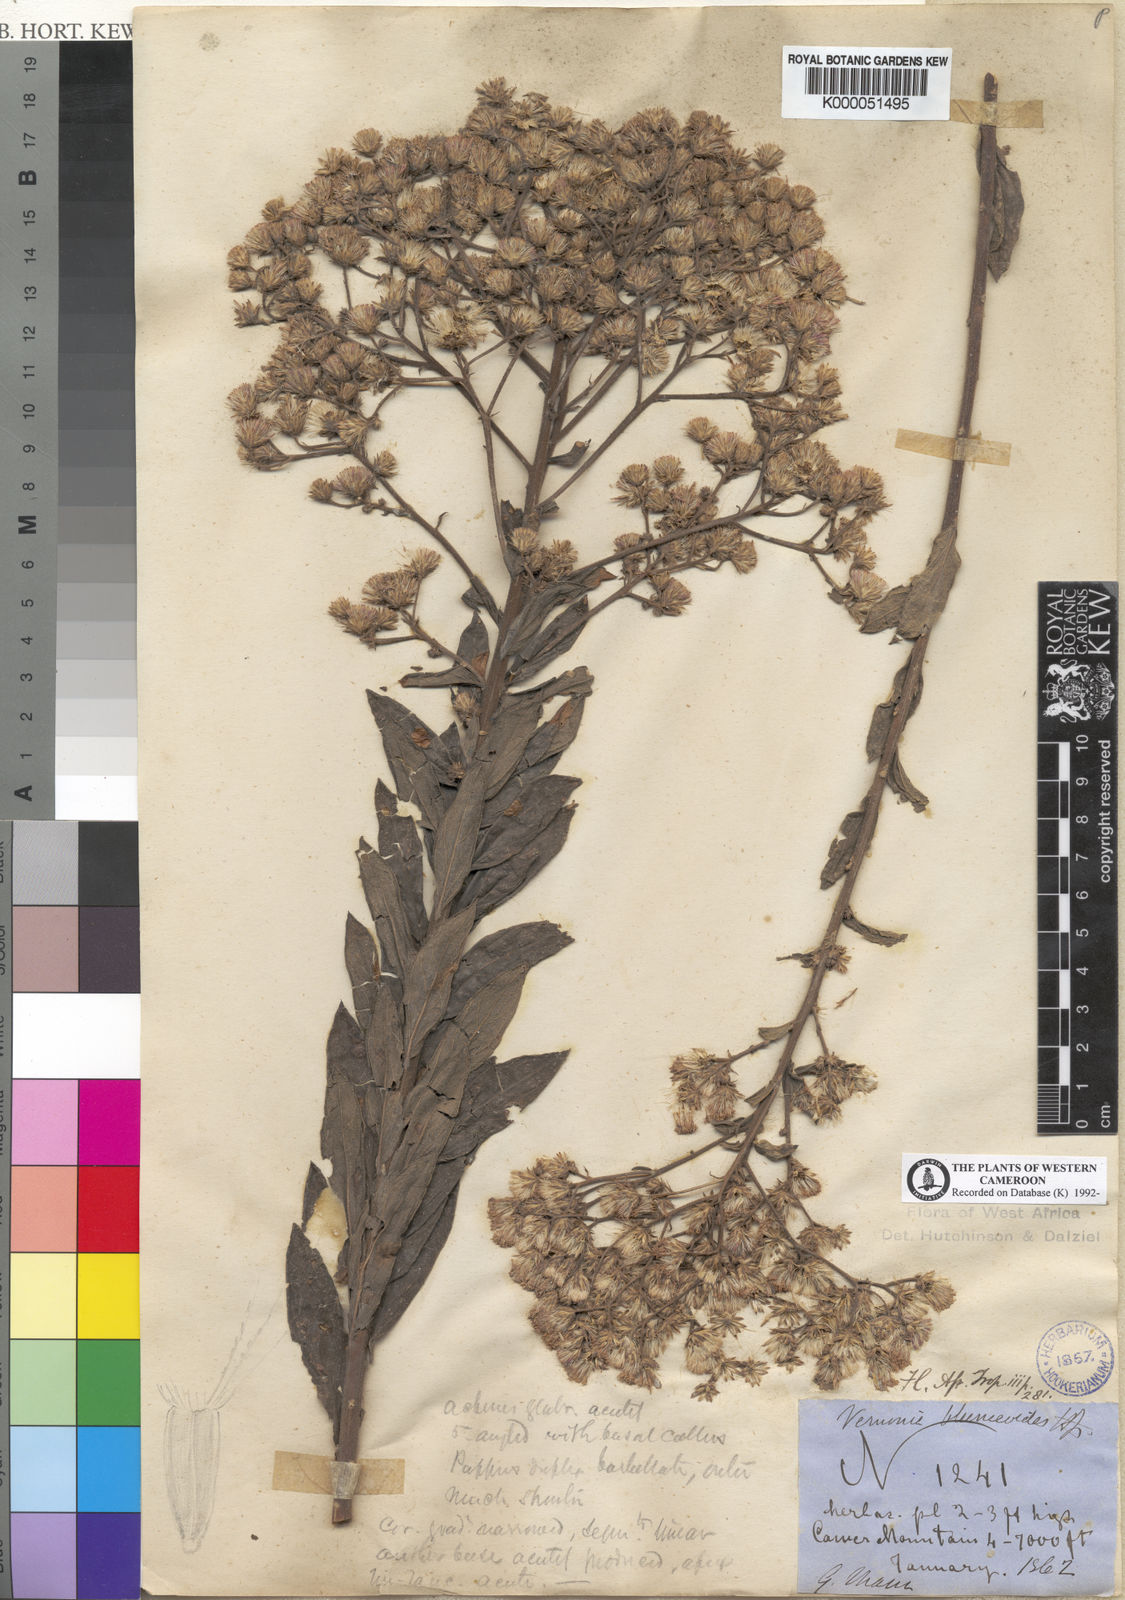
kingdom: Plantae
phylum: Tracheophyta
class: Magnoliopsida
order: Asterales
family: Asteraceae
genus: Orbivestus
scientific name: Orbivestus blumeoides
